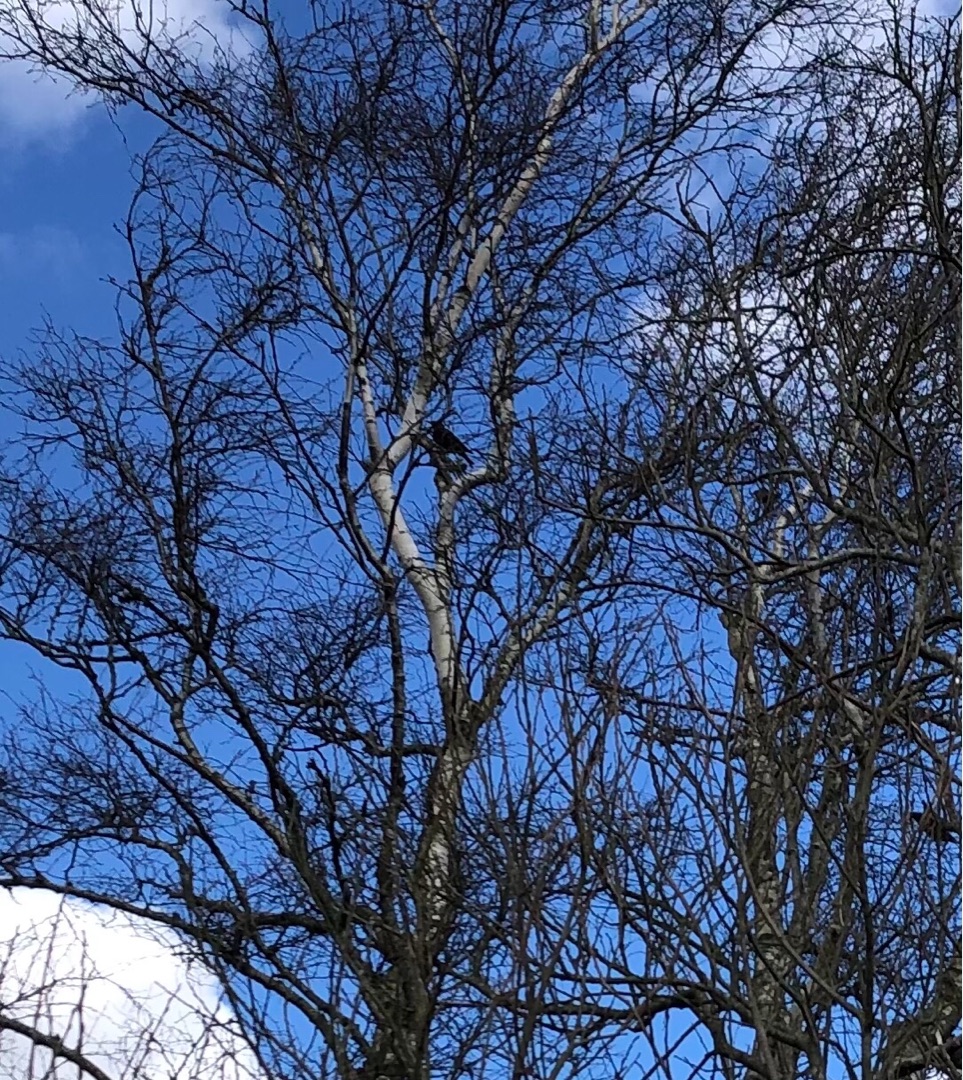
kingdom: Animalia
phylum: Chordata
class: Aves
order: Passeriformes
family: Sturnidae
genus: Sturnus
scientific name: Sturnus vulgaris
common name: Stær
